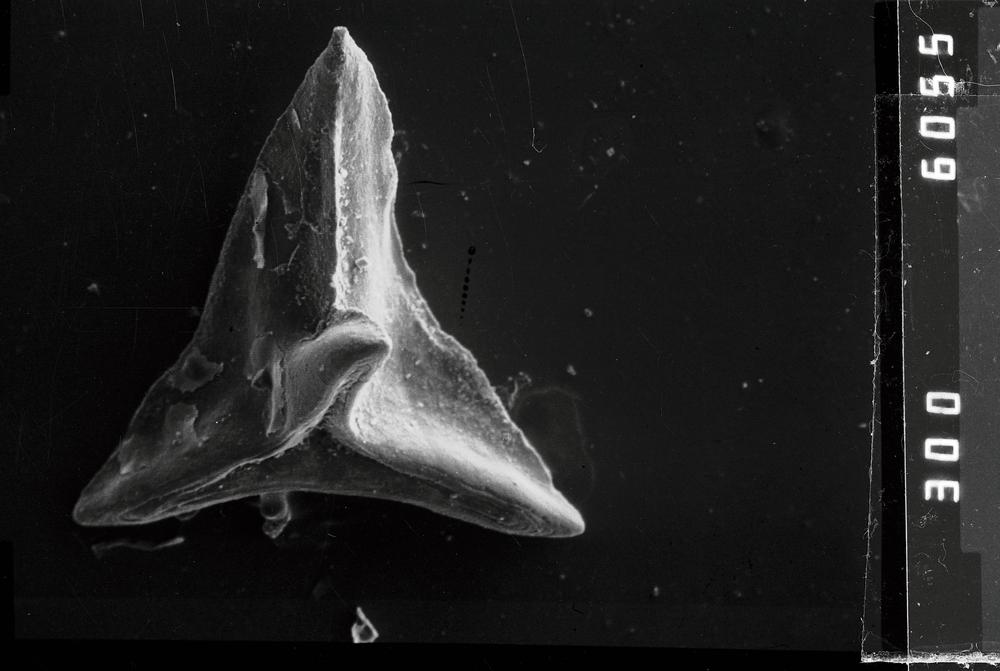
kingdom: Animalia
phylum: Chordata
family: Acodontidae
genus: Tripodus
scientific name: Tripodus
